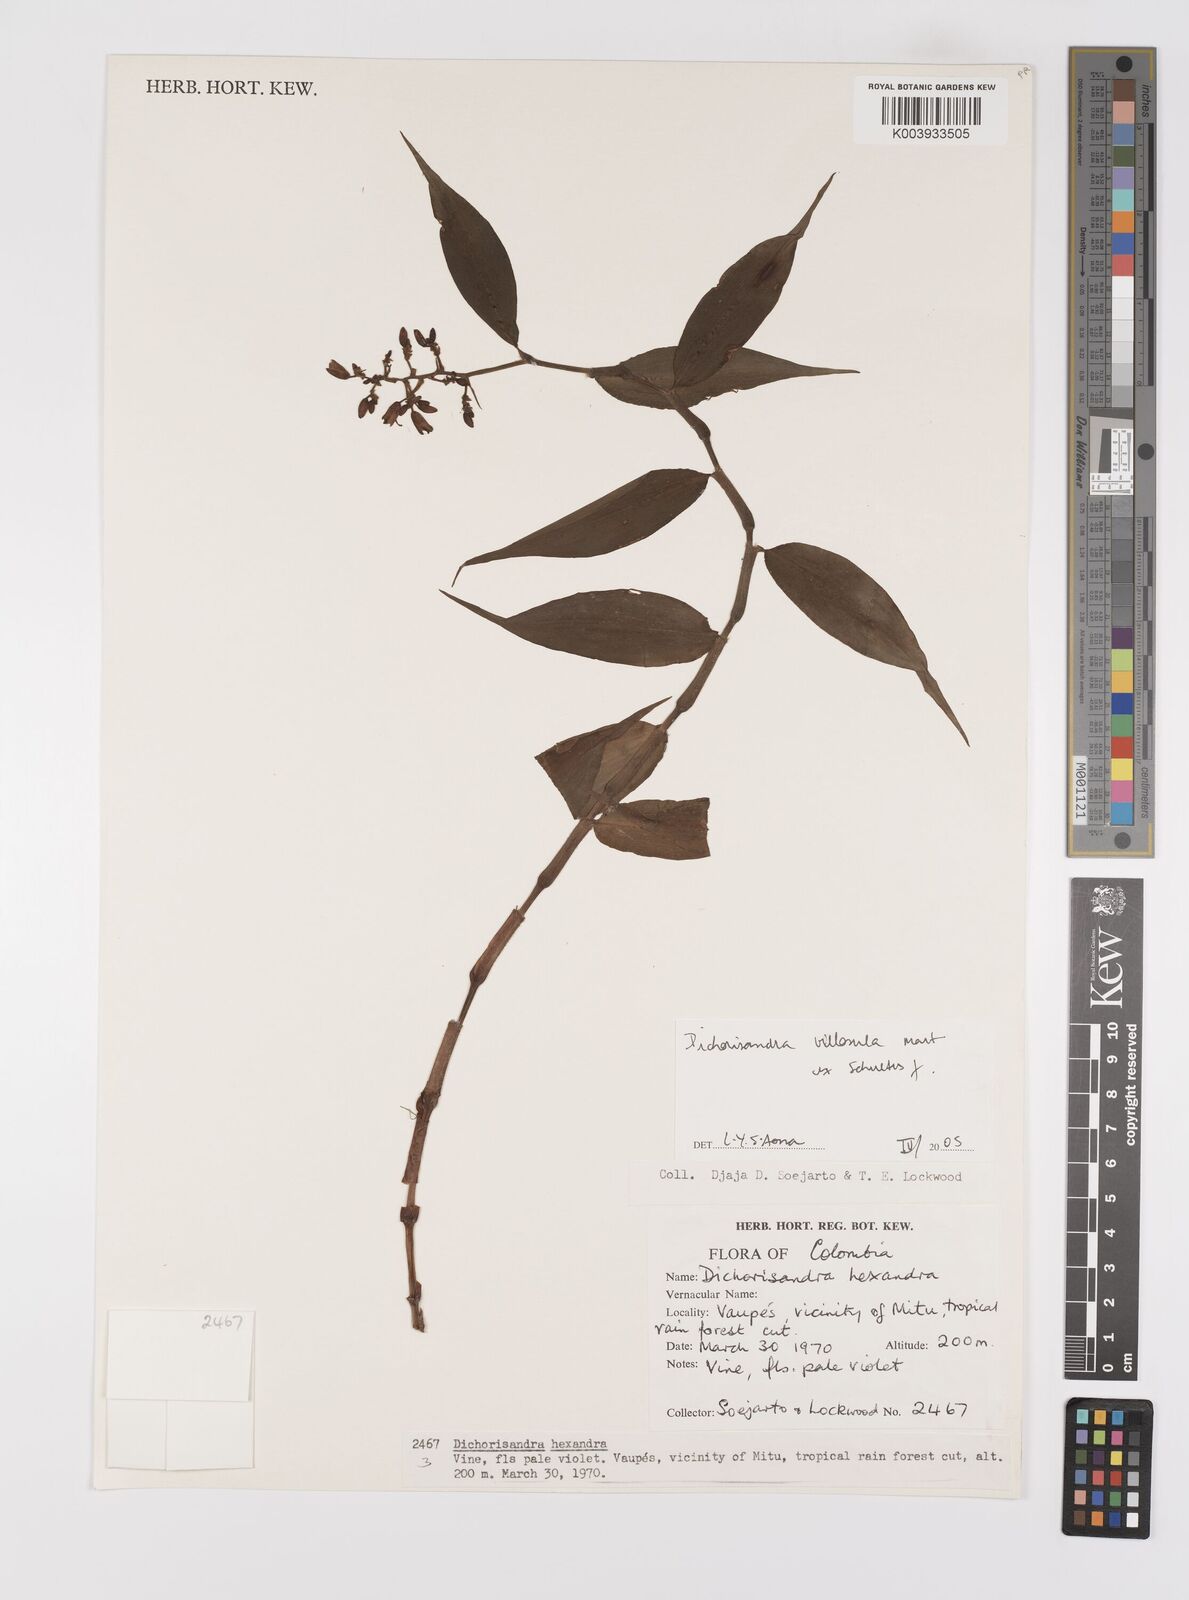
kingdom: Plantae
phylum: Tracheophyta
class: Liliopsida
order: Commelinales
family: Commelinaceae
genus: Dichorisandra
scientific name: Dichorisandra villosula
